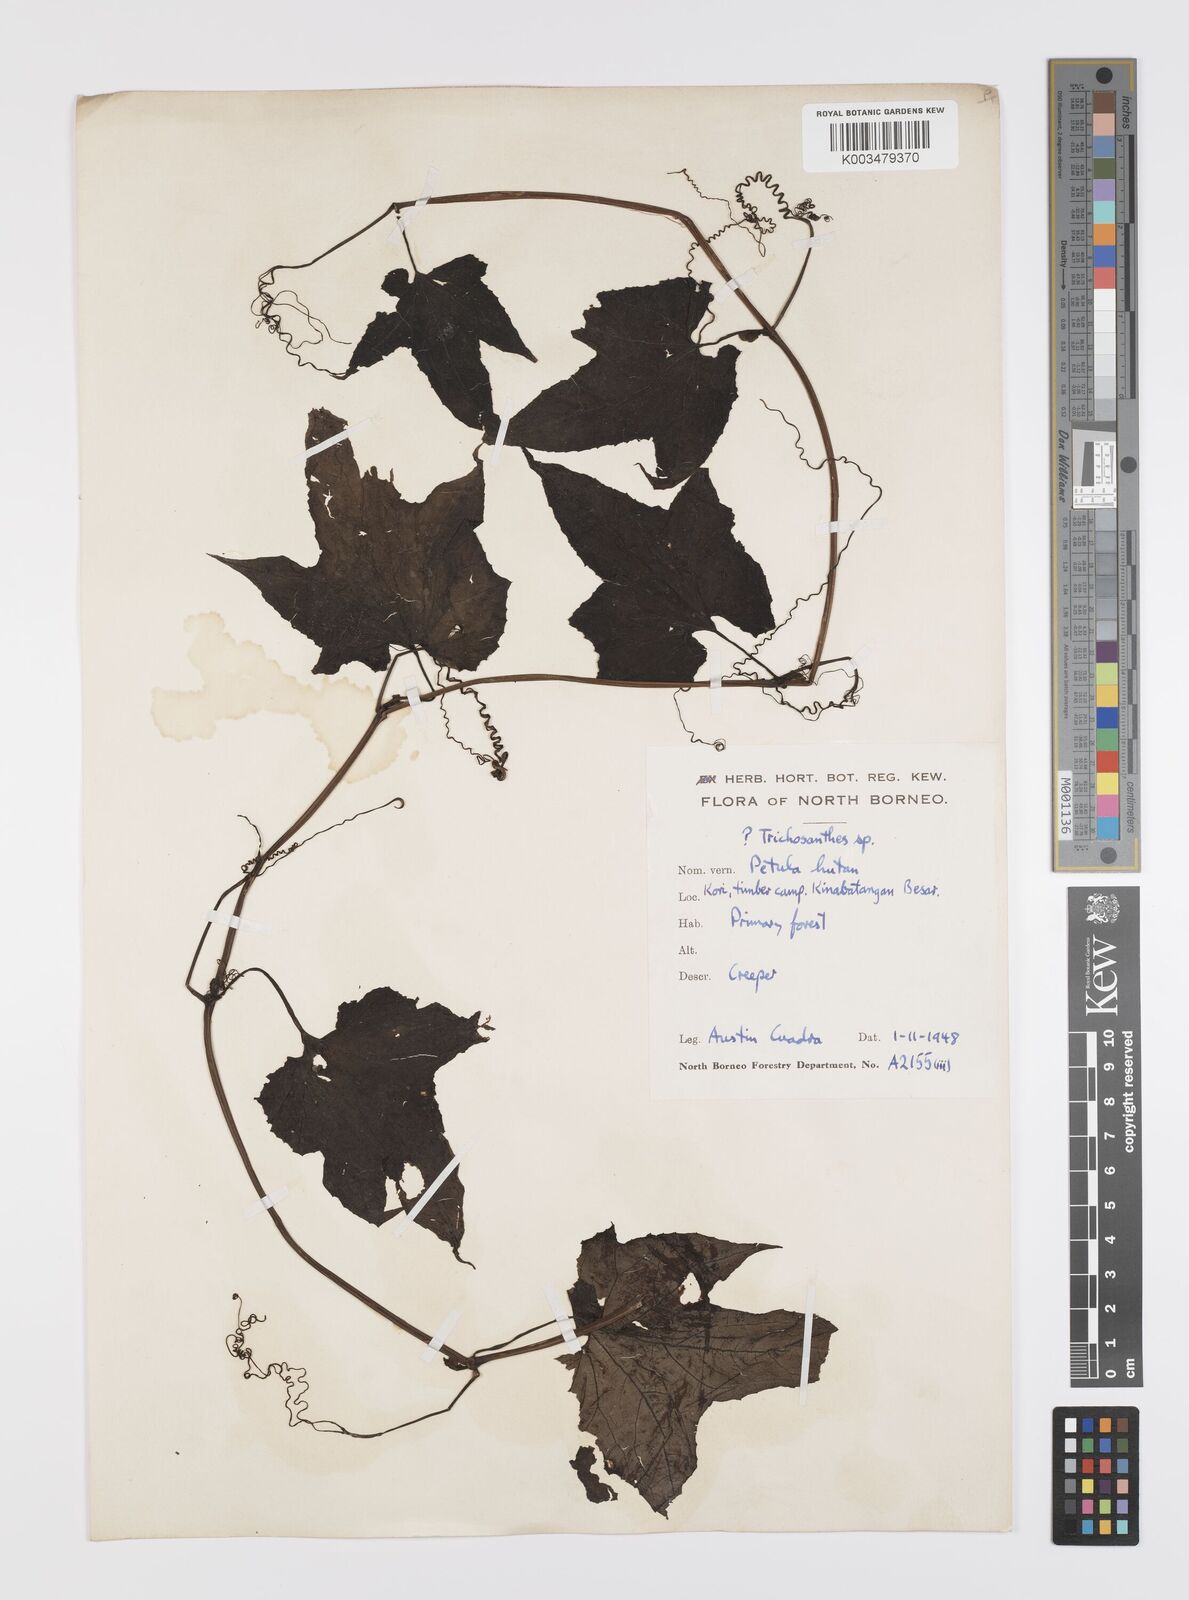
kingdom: Plantae
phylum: Tracheophyta
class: Magnoliopsida
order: Cucurbitales
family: Cucurbitaceae
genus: Trichosanthes
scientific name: Trichosanthes tricuspidata
